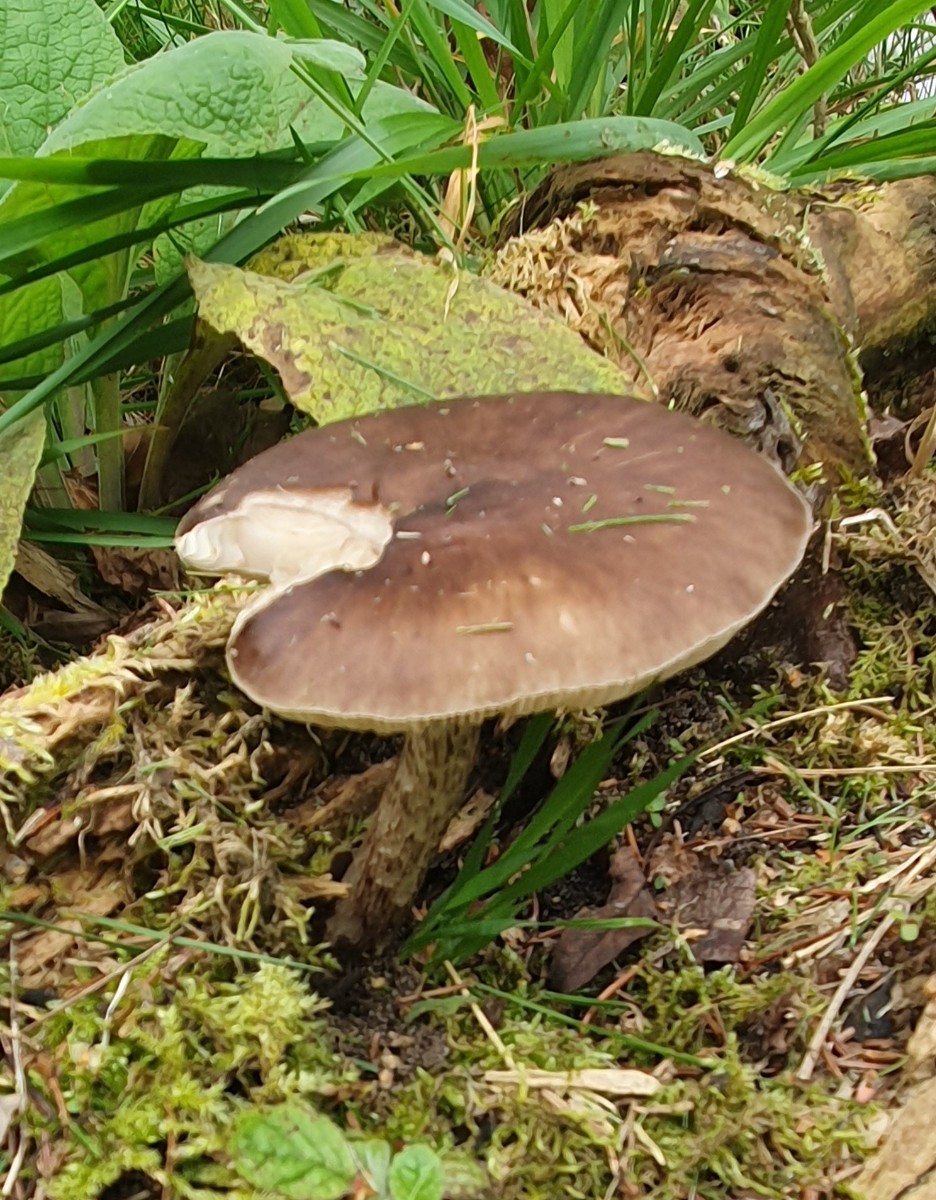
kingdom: Fungi
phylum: Basidiomycota
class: Agaricomycetes
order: Agaricales
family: Pluteaceae
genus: Pluteus
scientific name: Pluteus cervinus
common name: sodfarvet skærmhat
